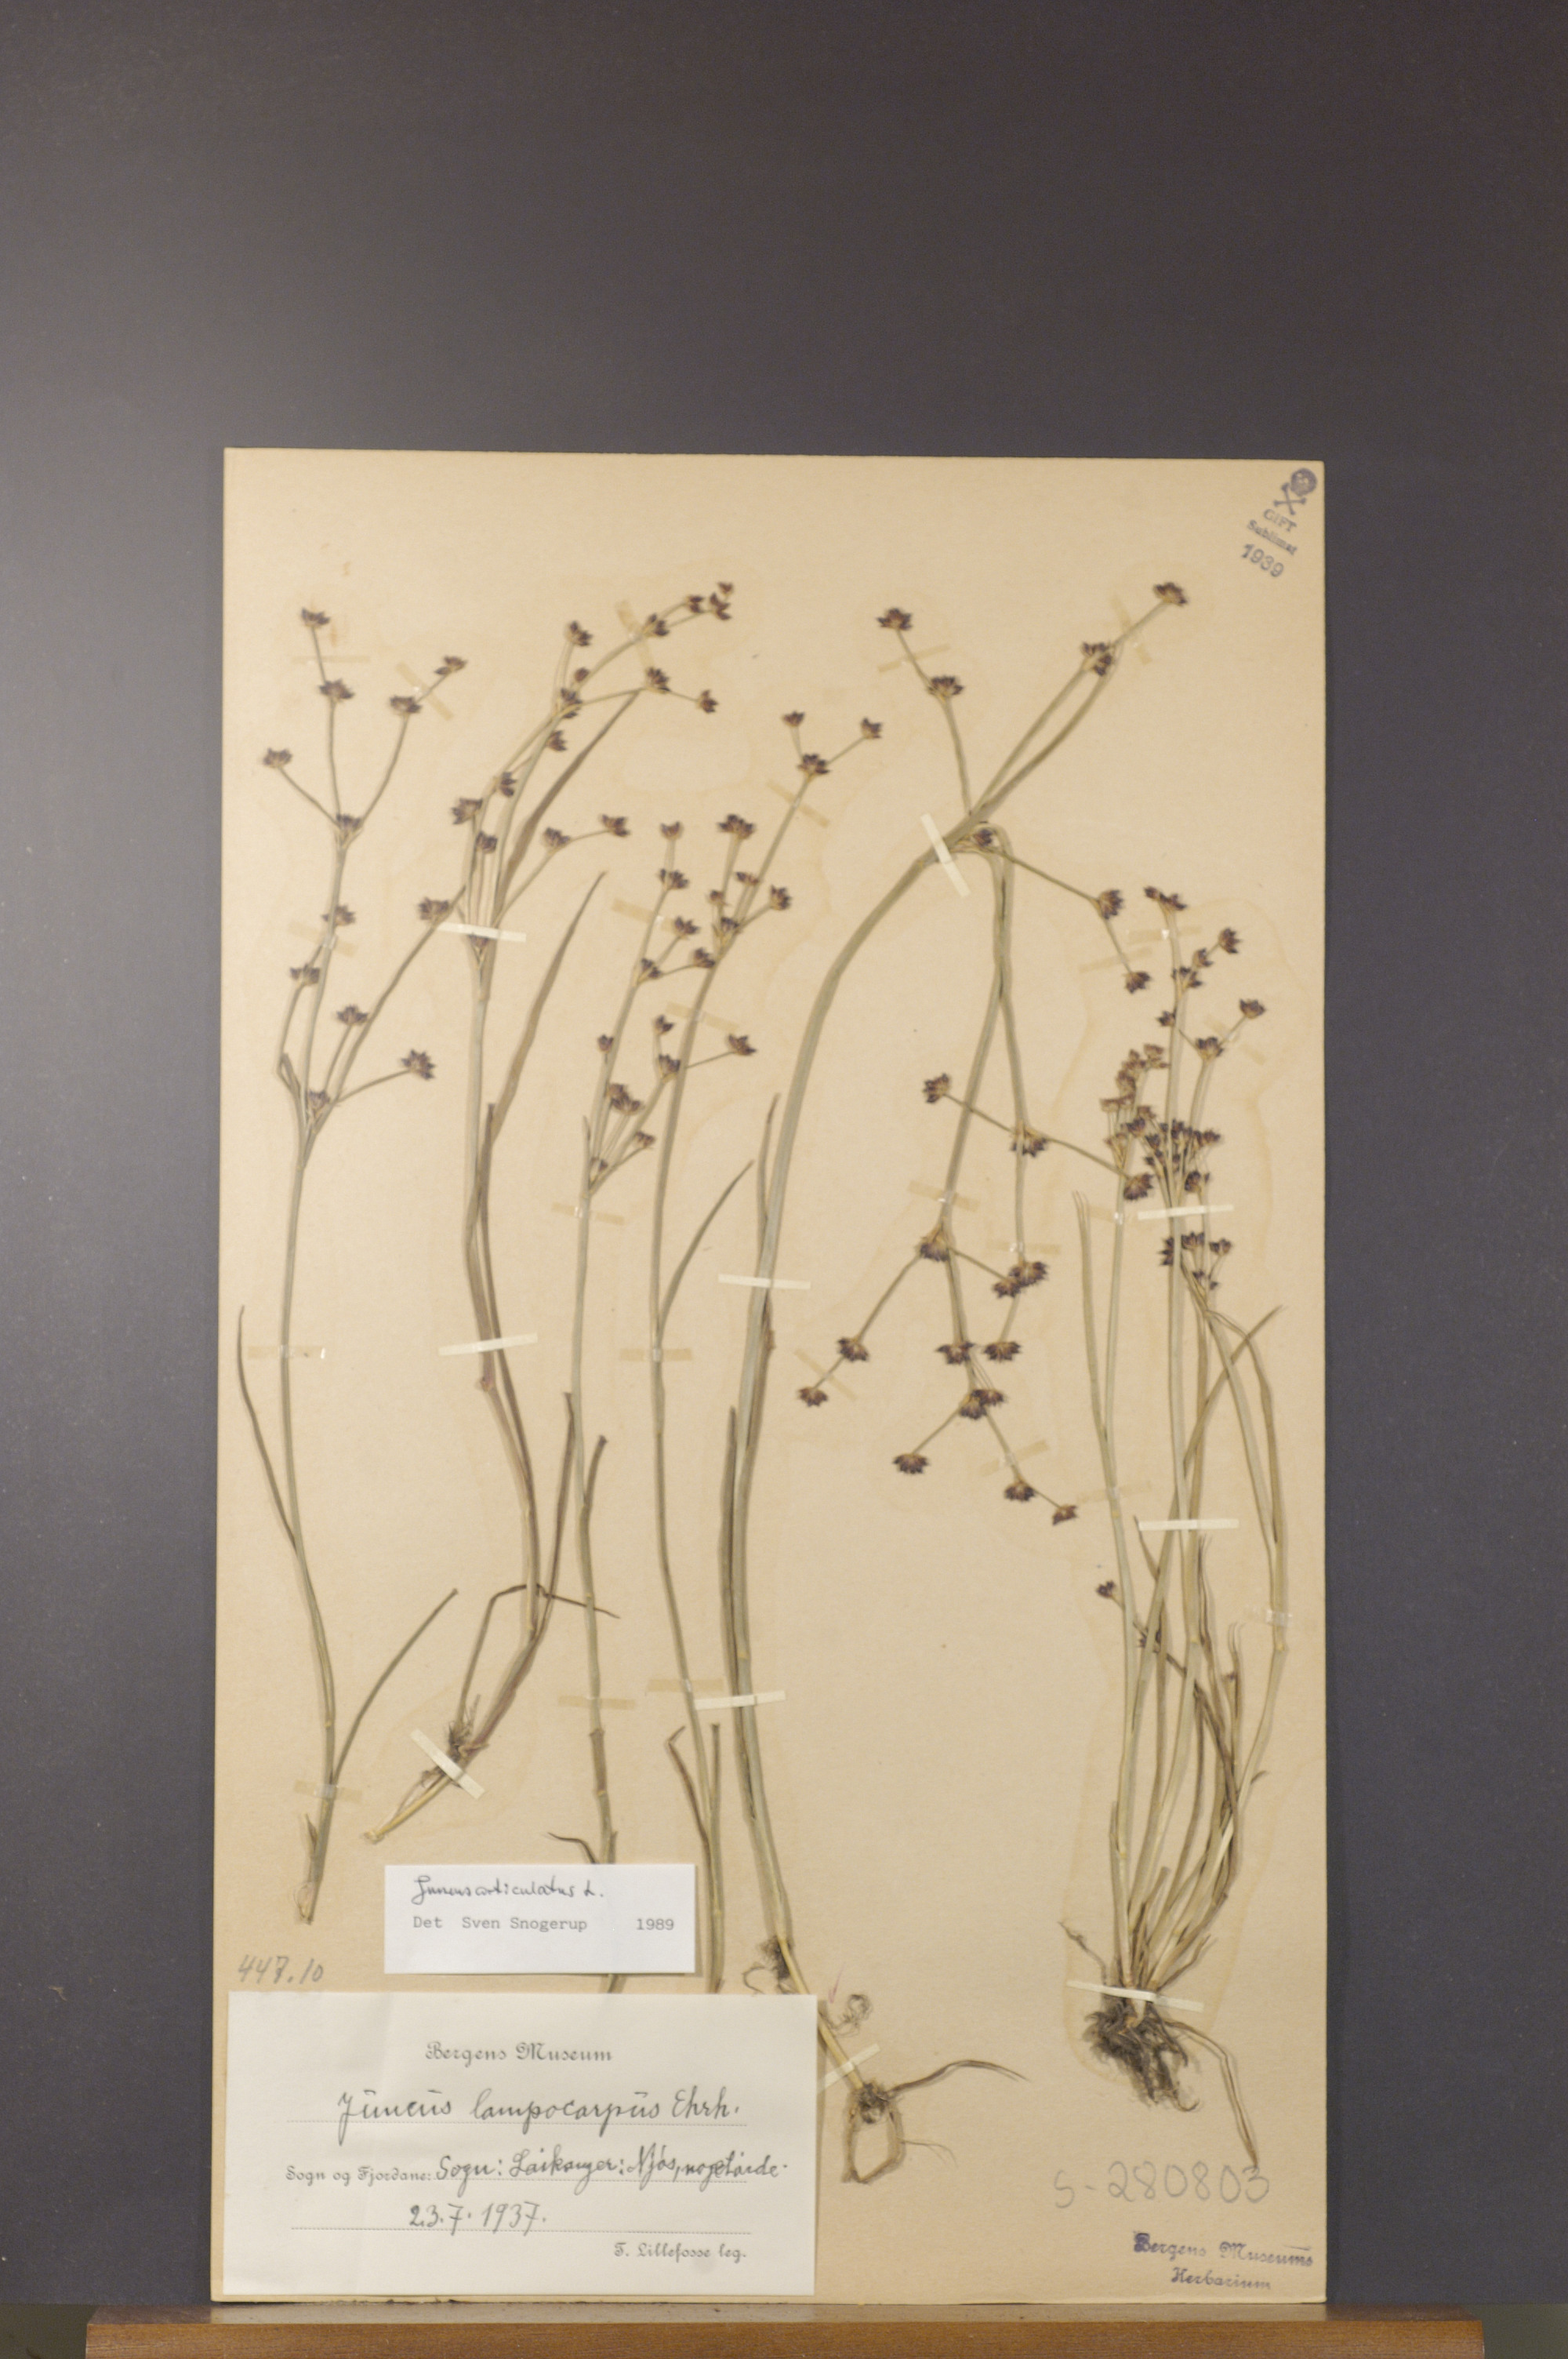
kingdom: Plantae
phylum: Tracheophyta
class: Liliopsida
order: Poales
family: Juncaceae
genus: Juncus
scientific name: Juncus articulatus
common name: Jointed rush
